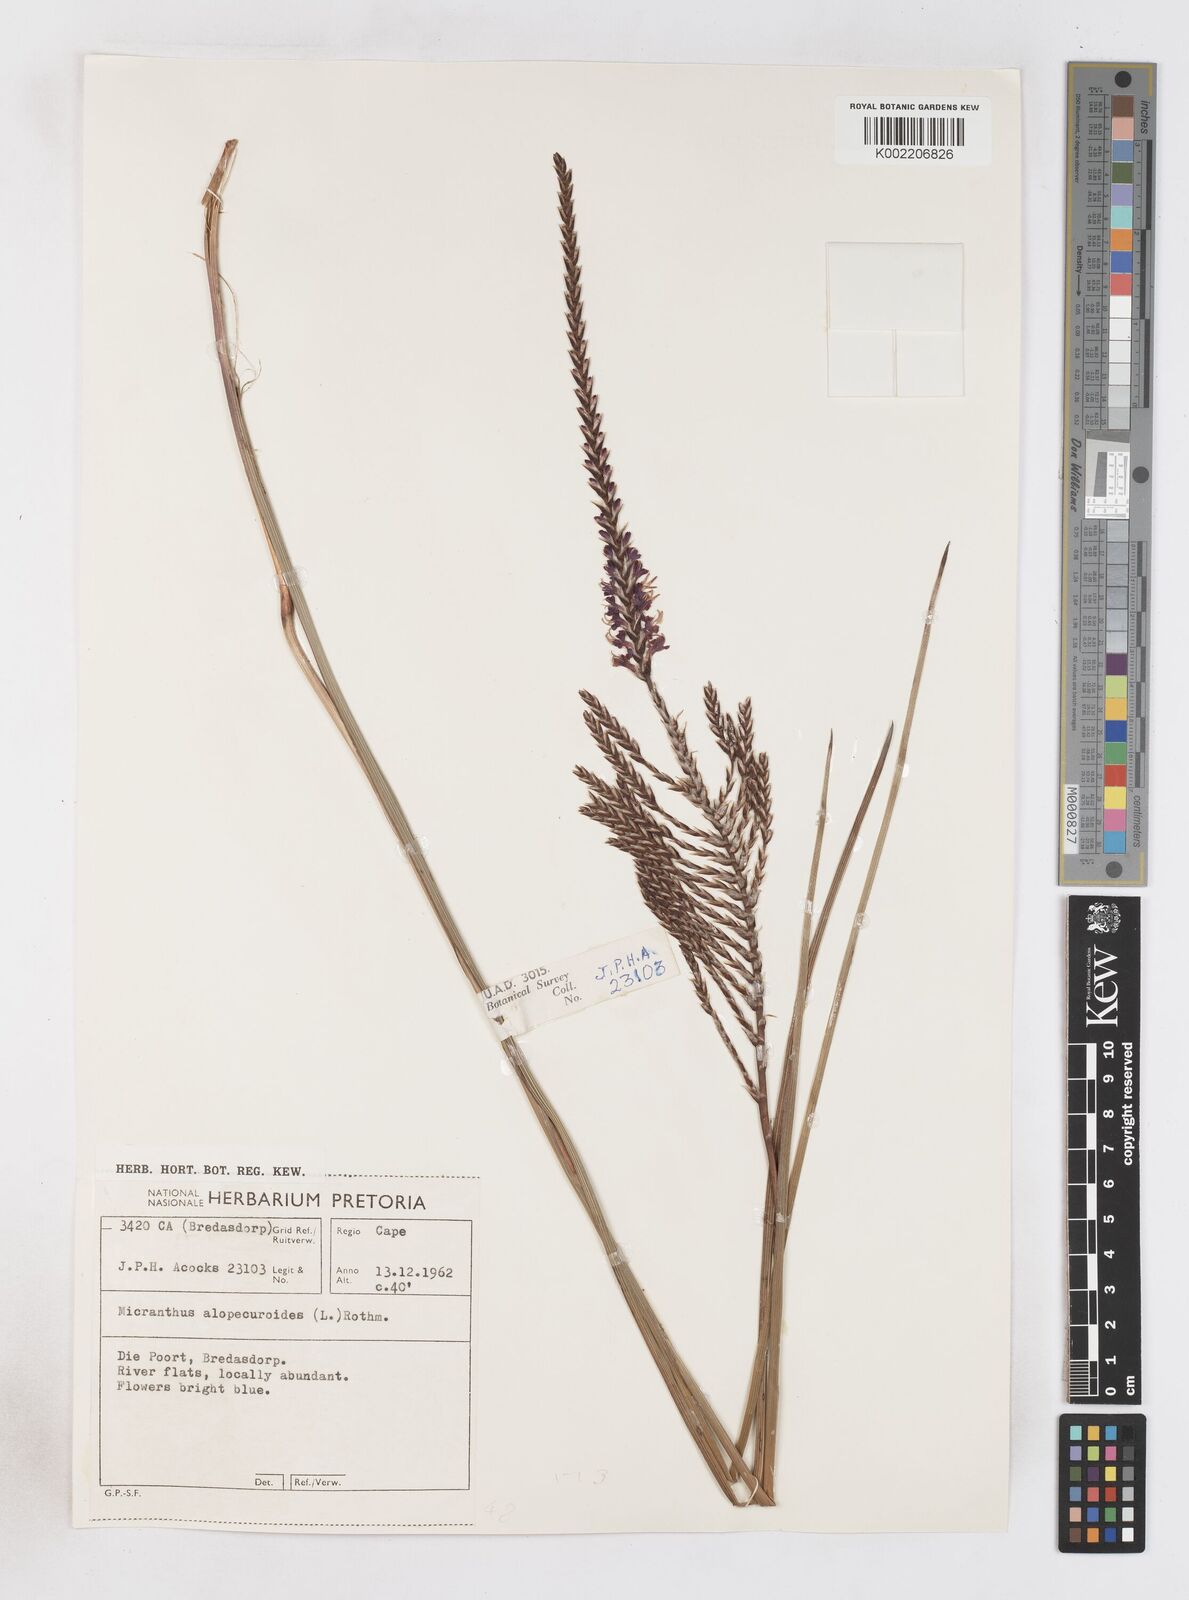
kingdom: Plantae
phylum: Tracheophyta
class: Liliopsida
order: Asparagales
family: Iridaceae
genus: Micranthus
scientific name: Micranthus alopecuroides
